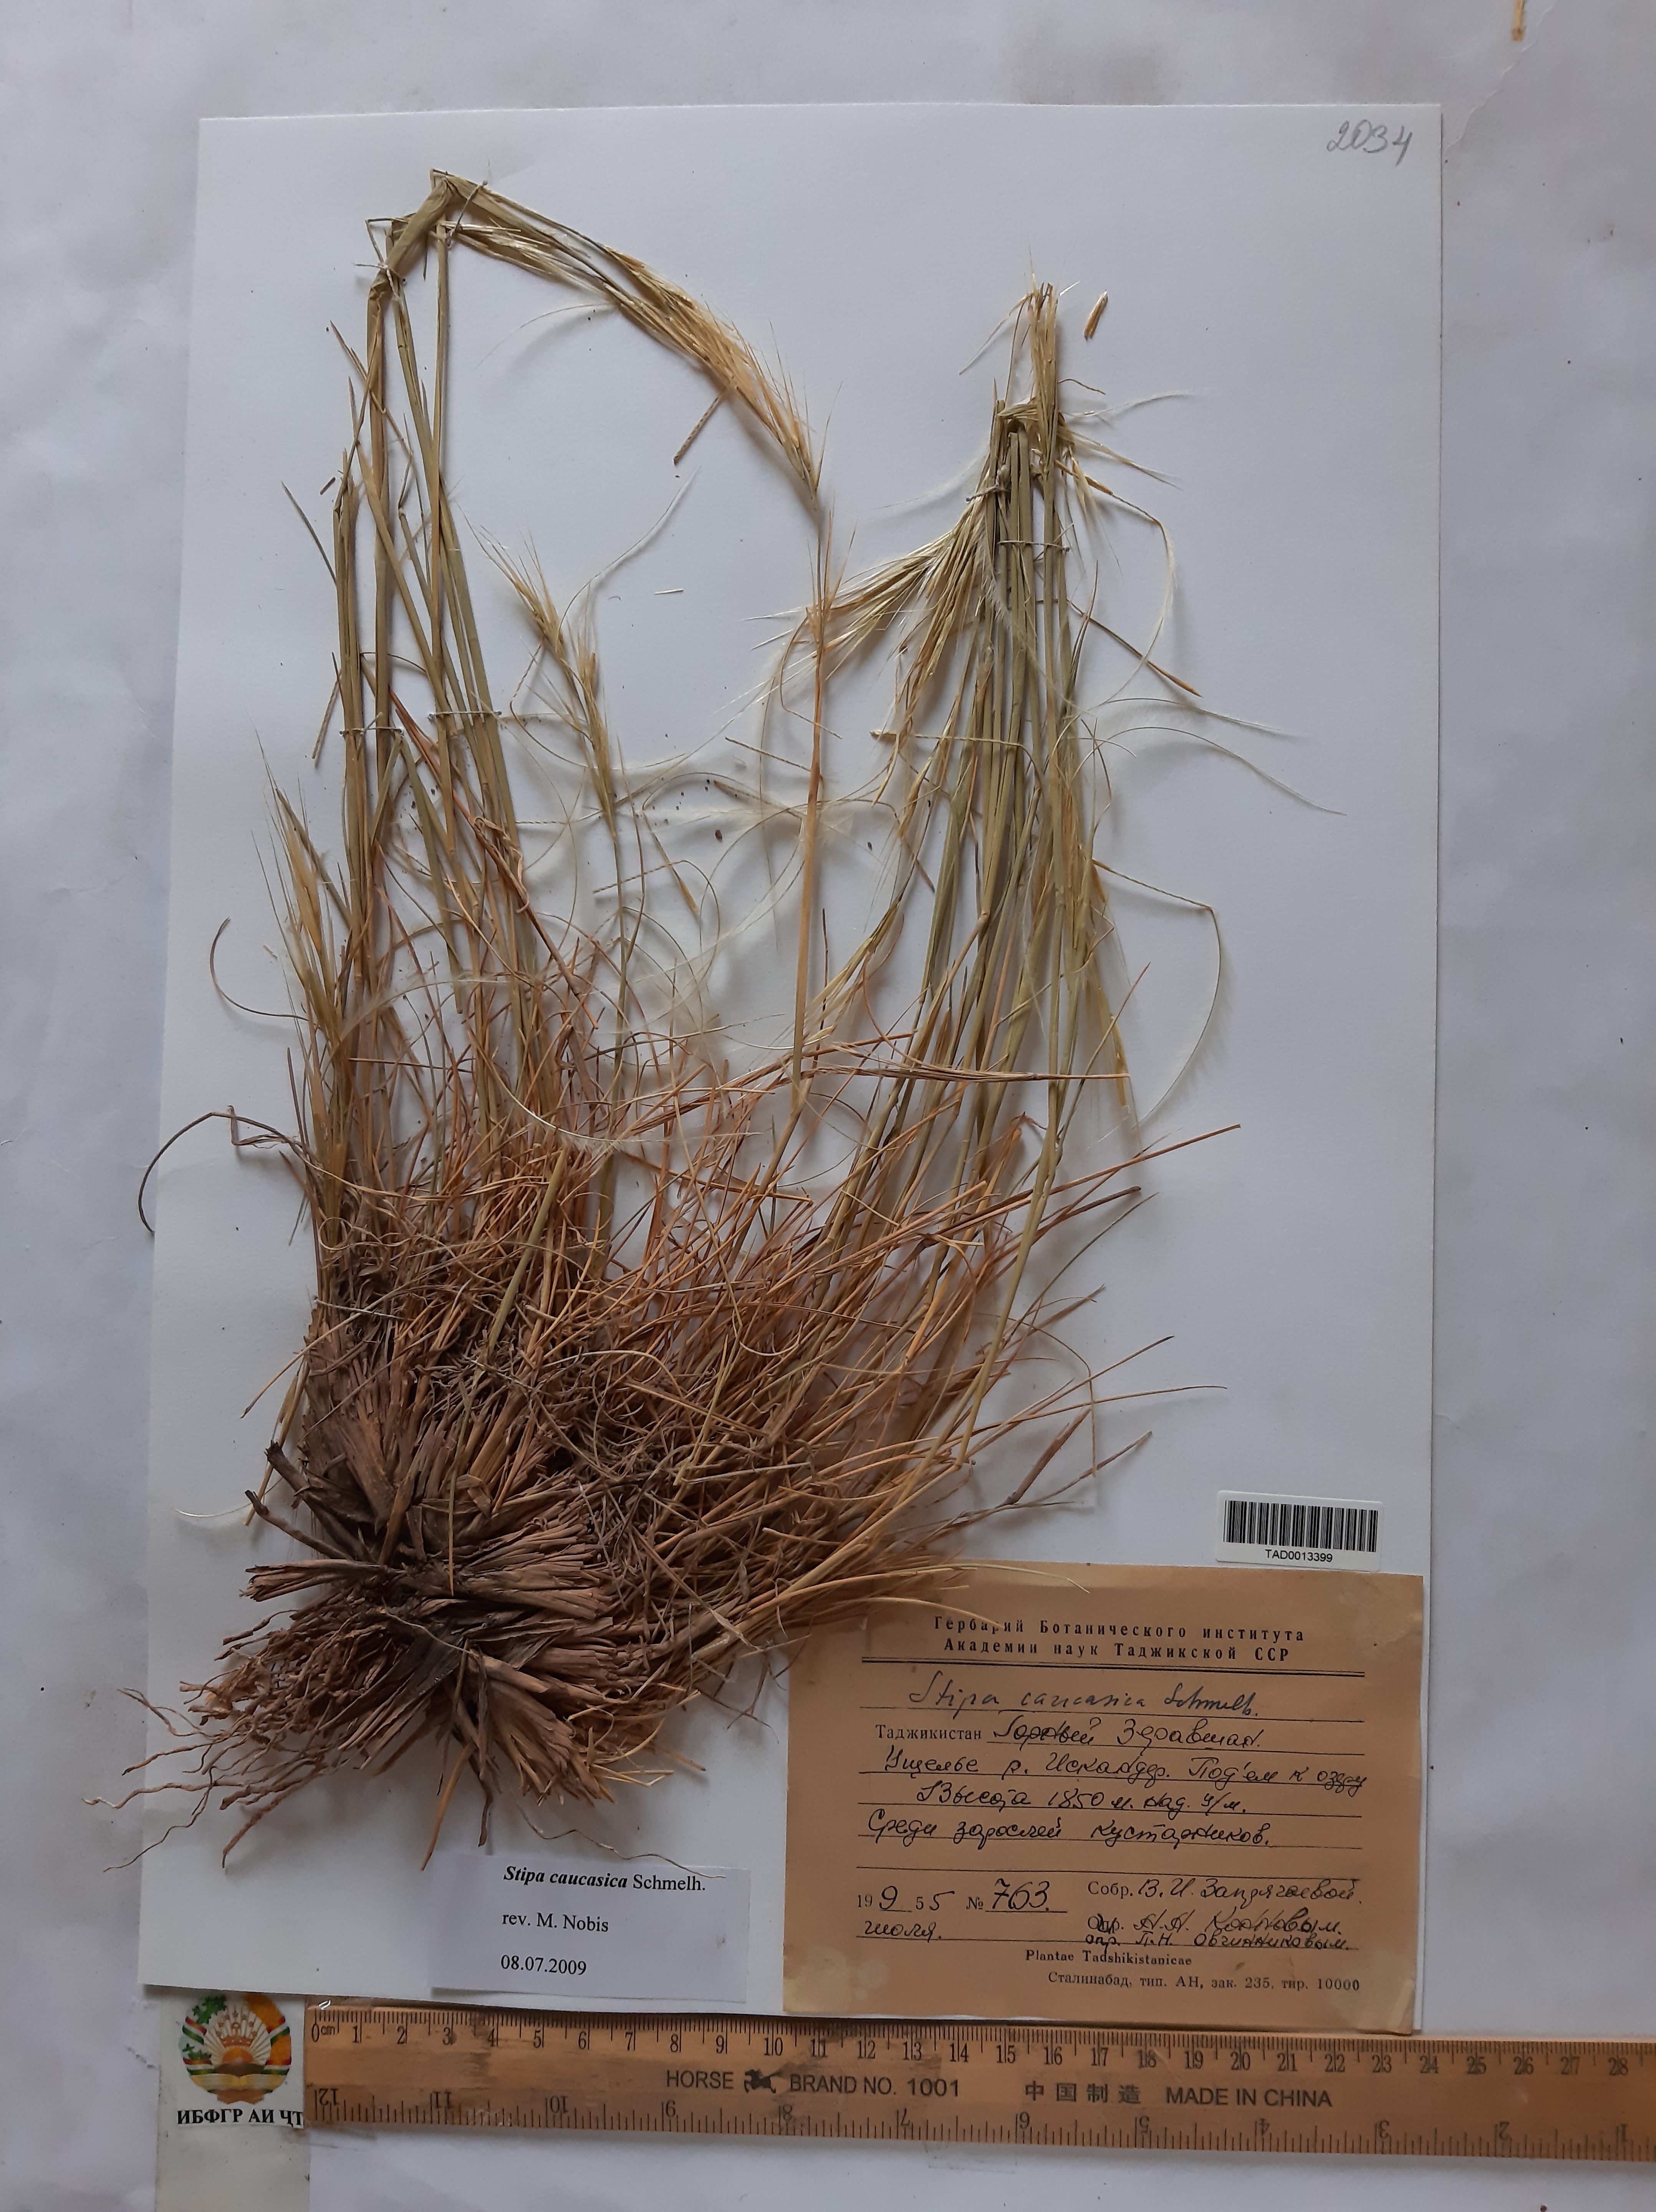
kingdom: Plantae
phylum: Tracheophyta
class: Liliopsida
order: Poales
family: Poaceae
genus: Stipa
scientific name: Stipa caucasica
